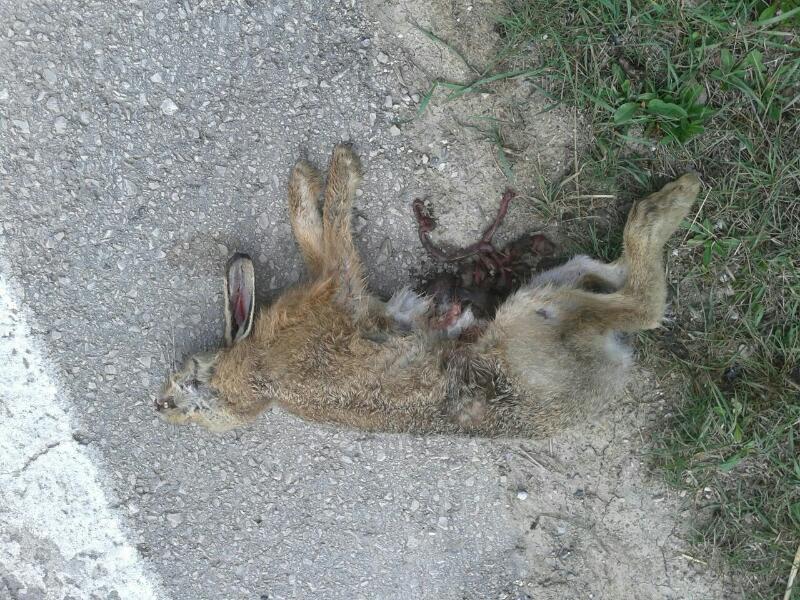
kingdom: Animalia
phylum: Chordata
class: Mammalia
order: Lagomorpha
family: Leporidae
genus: Lepus
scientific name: Lepus europaeus
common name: European hare
